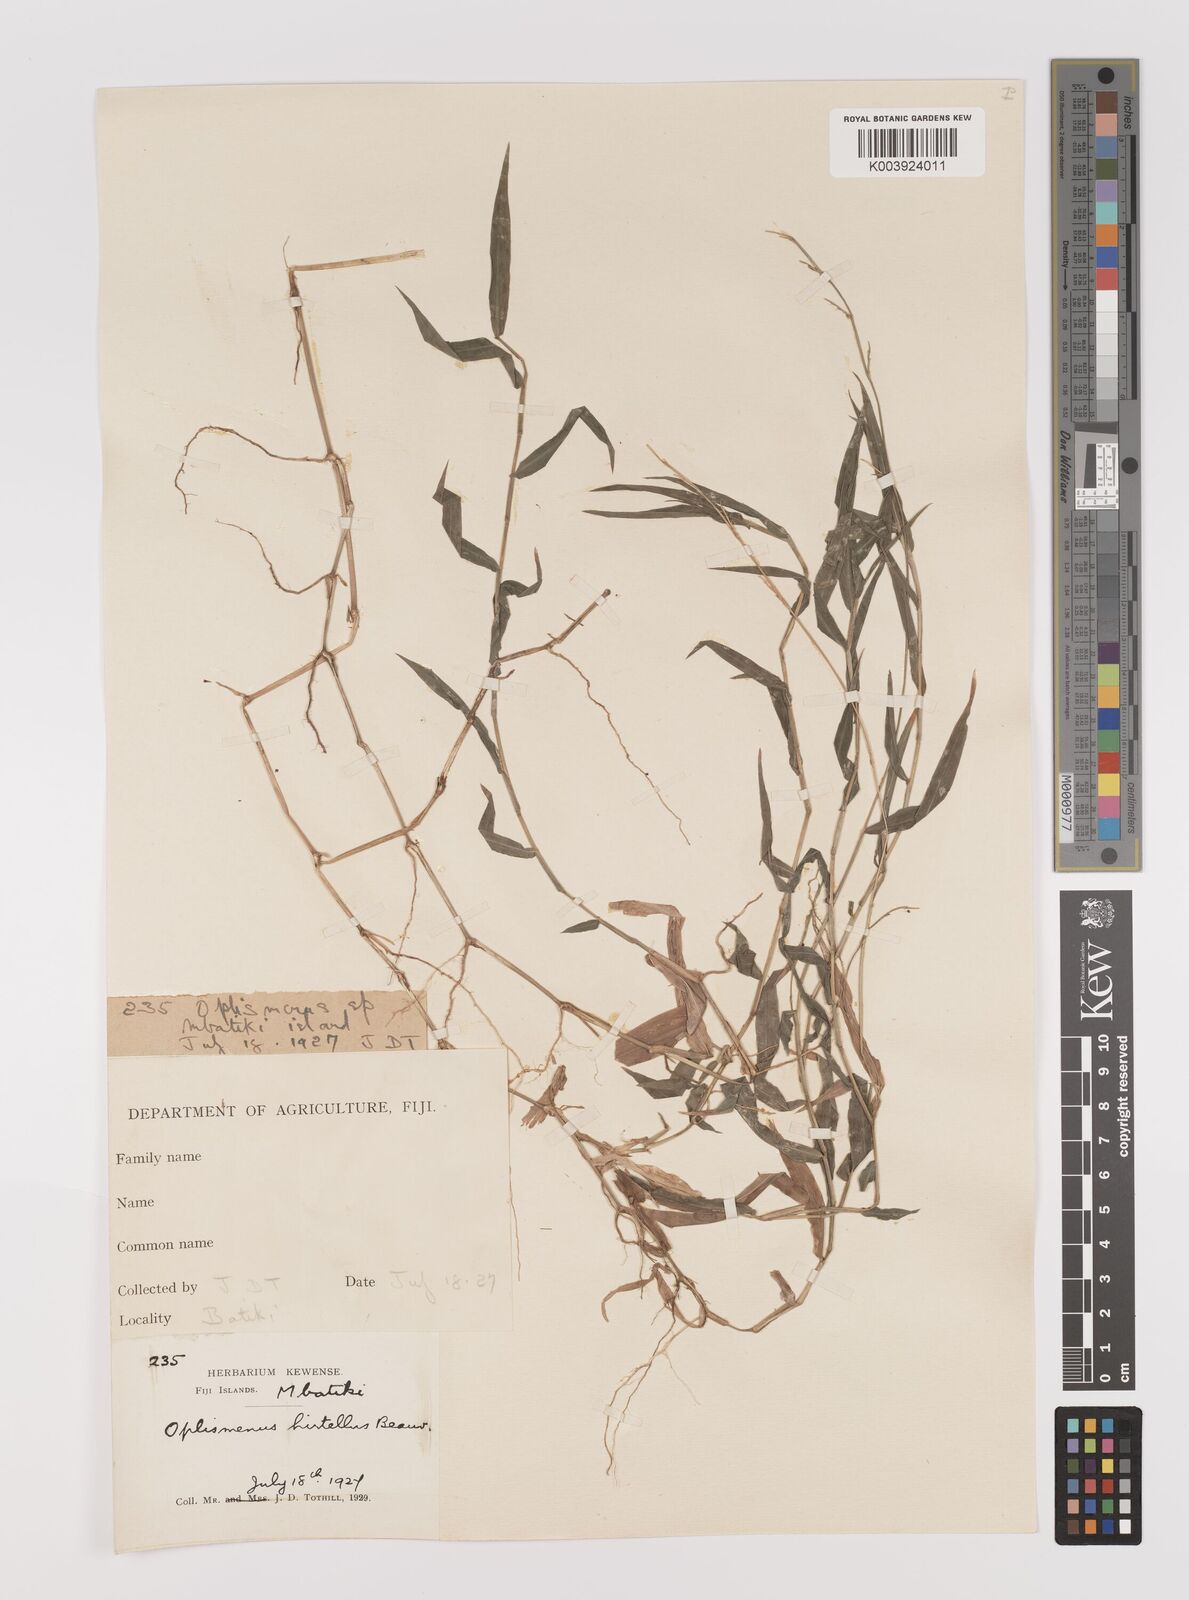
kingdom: Plantae
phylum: Tracheophyta
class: Liliopsida
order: Poales
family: Poaceae
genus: Oplismenus
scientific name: Oplismenus hirtellus
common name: Basketgrass
